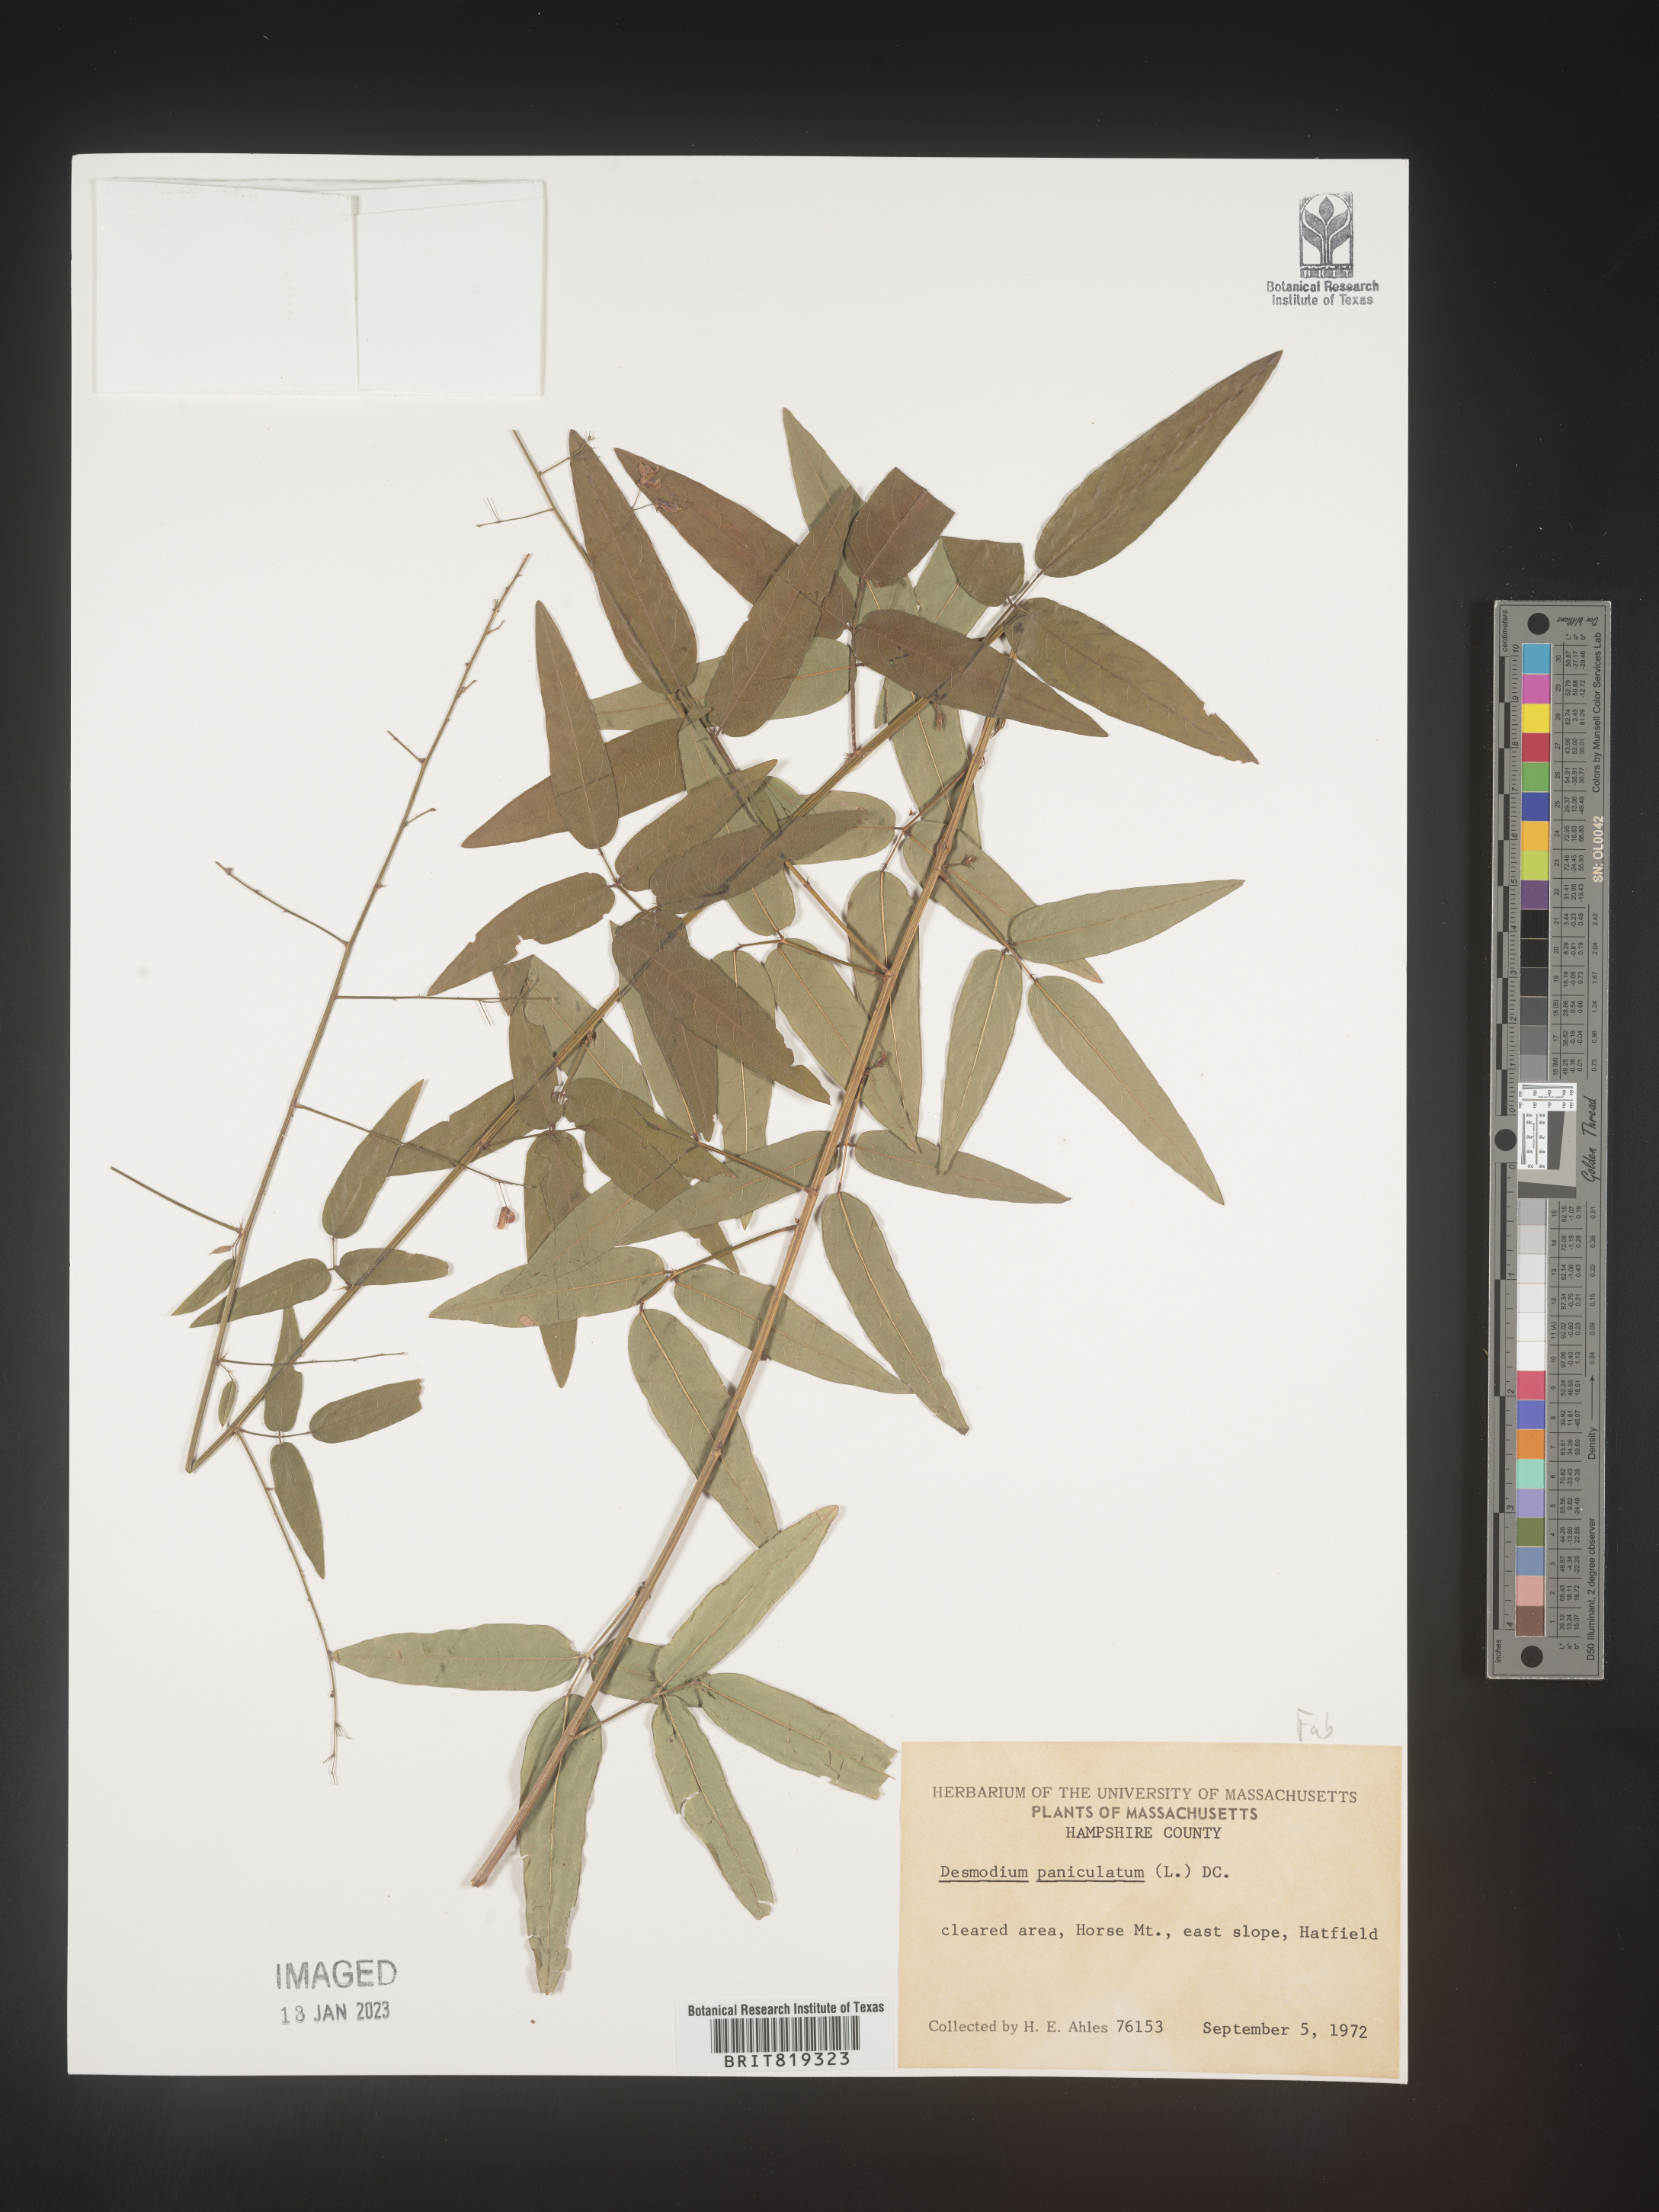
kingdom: Plantae
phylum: Tracheophyta
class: Magnoliopsida
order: Fabales
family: Fabaceae
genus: Desmodium
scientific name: Desmodium paniculatum
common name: Panicled tick-clover
